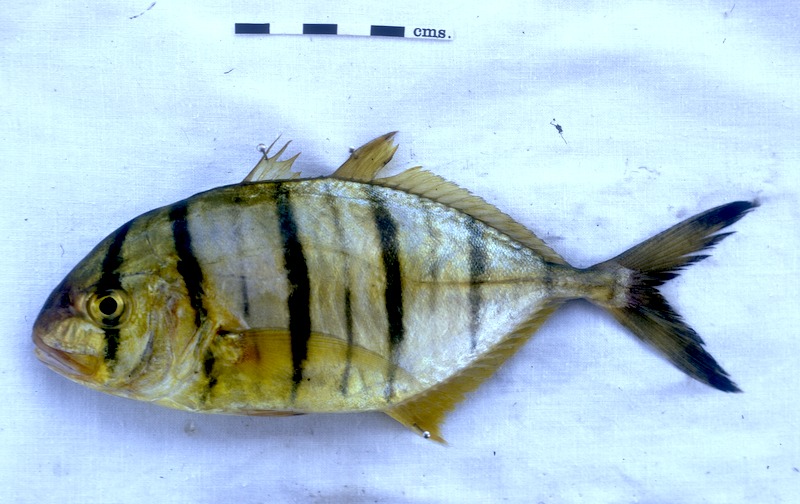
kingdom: Animalia
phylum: Chordata
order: Perciformes
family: Carangidae
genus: Gnathanodon
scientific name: Gnathanodon speciosus
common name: Golden toothless trevally
